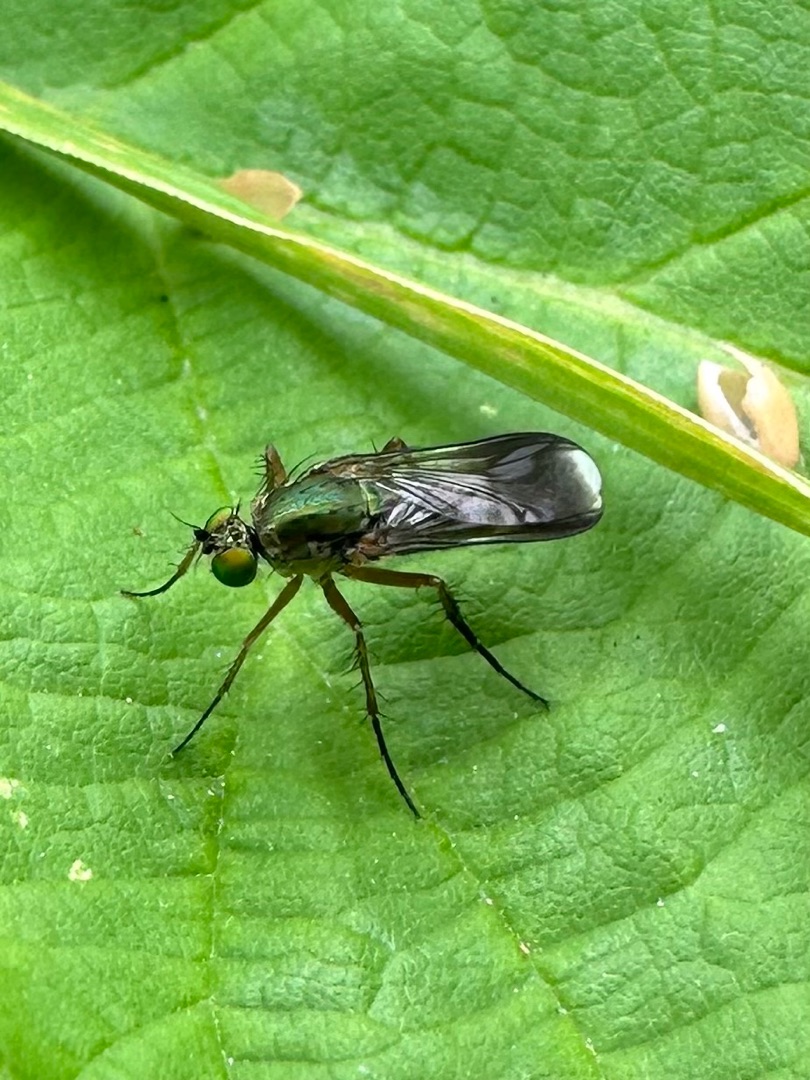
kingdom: Animalia
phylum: Arthropoda
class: Insecta
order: Diptera
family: Dolichopodidae
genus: Poecilobothrus
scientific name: Poecilobothrus nobilitatus
